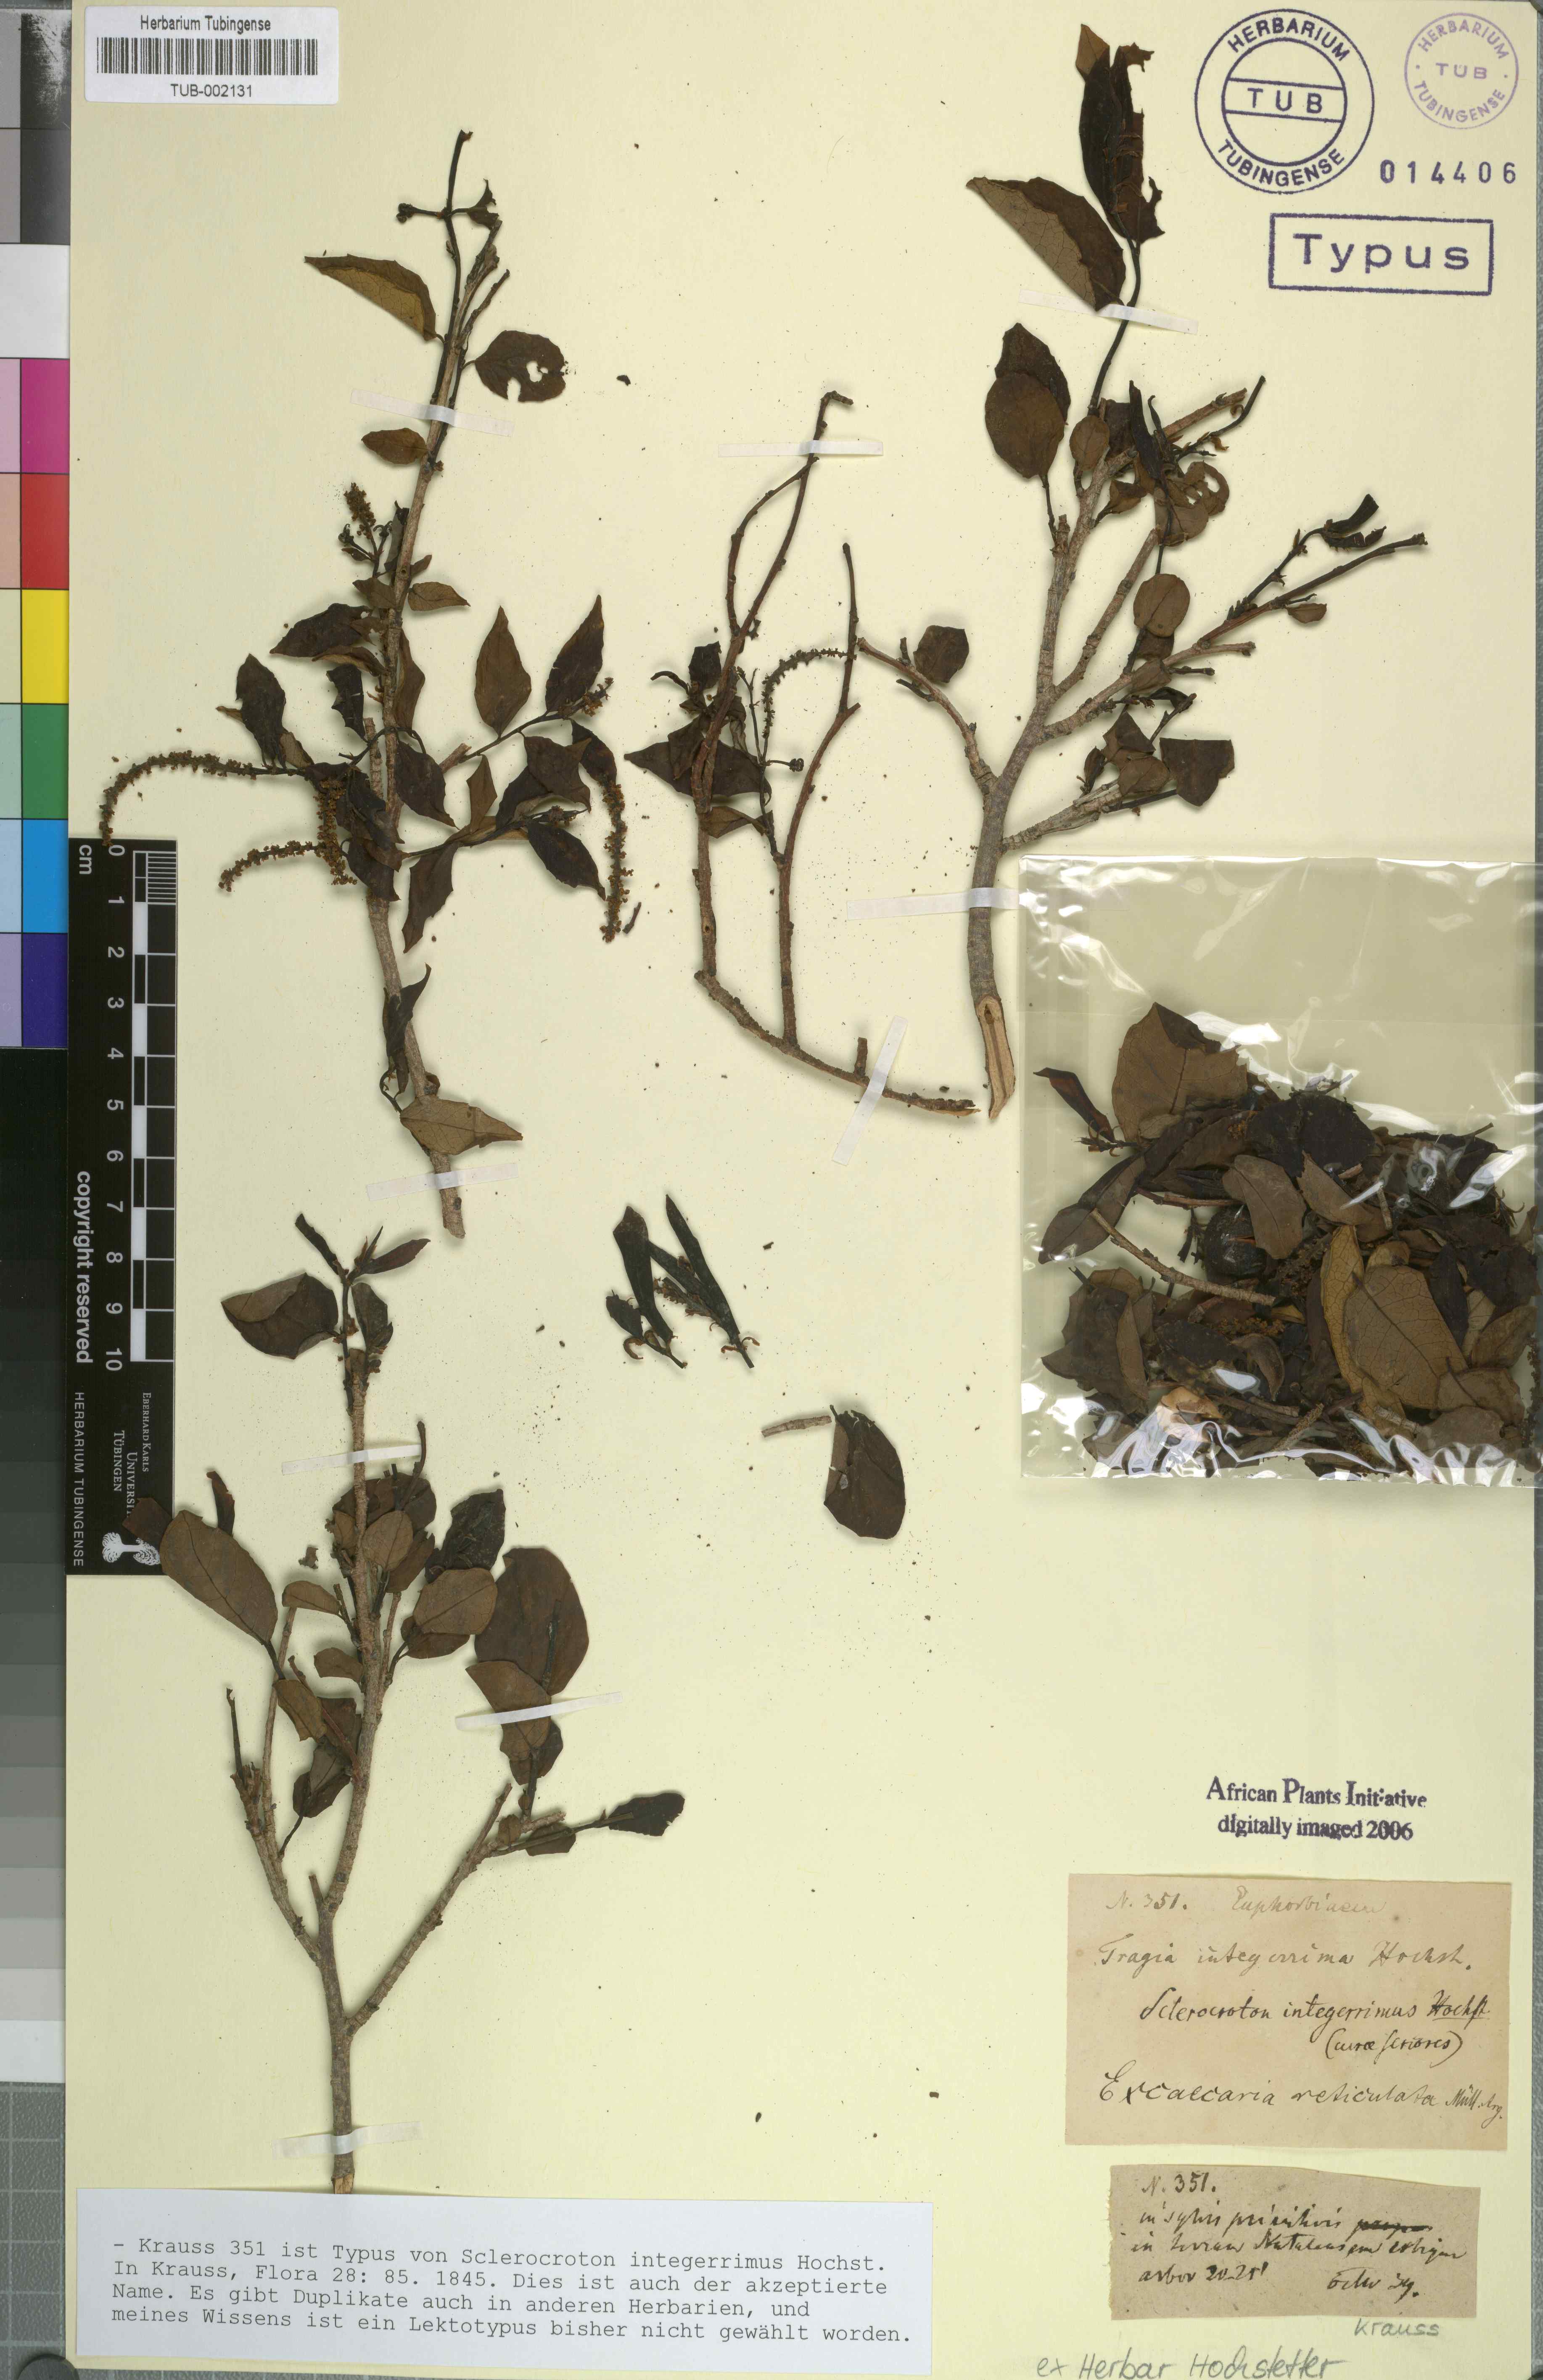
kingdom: Plantae
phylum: Tracheophyta
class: Magnoliopsida
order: Malpighiales
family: Euphorbiaceae
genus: Sclerocroton
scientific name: Sclerocroton integerrimus
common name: Duiker berry
